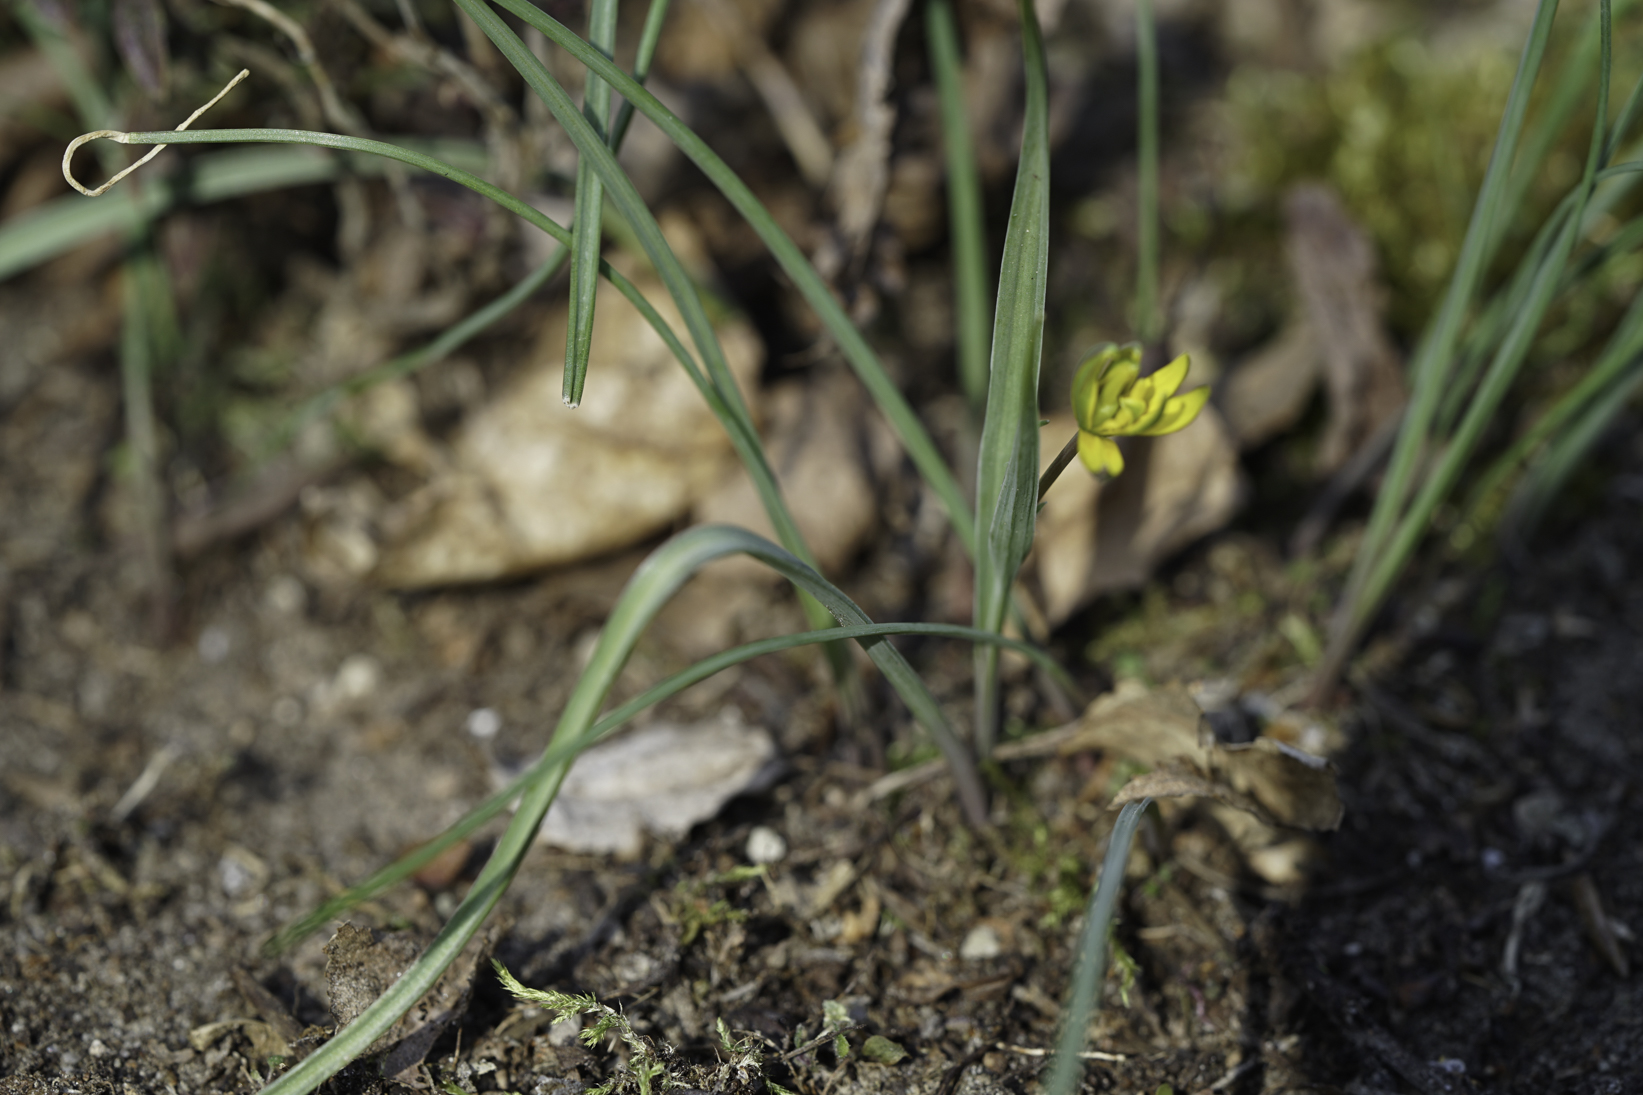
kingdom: Plantae
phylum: Tracheophyta
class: Liliopsida
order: Liliales
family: Liliaceae
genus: Gagea
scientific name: Gagea pratensis
